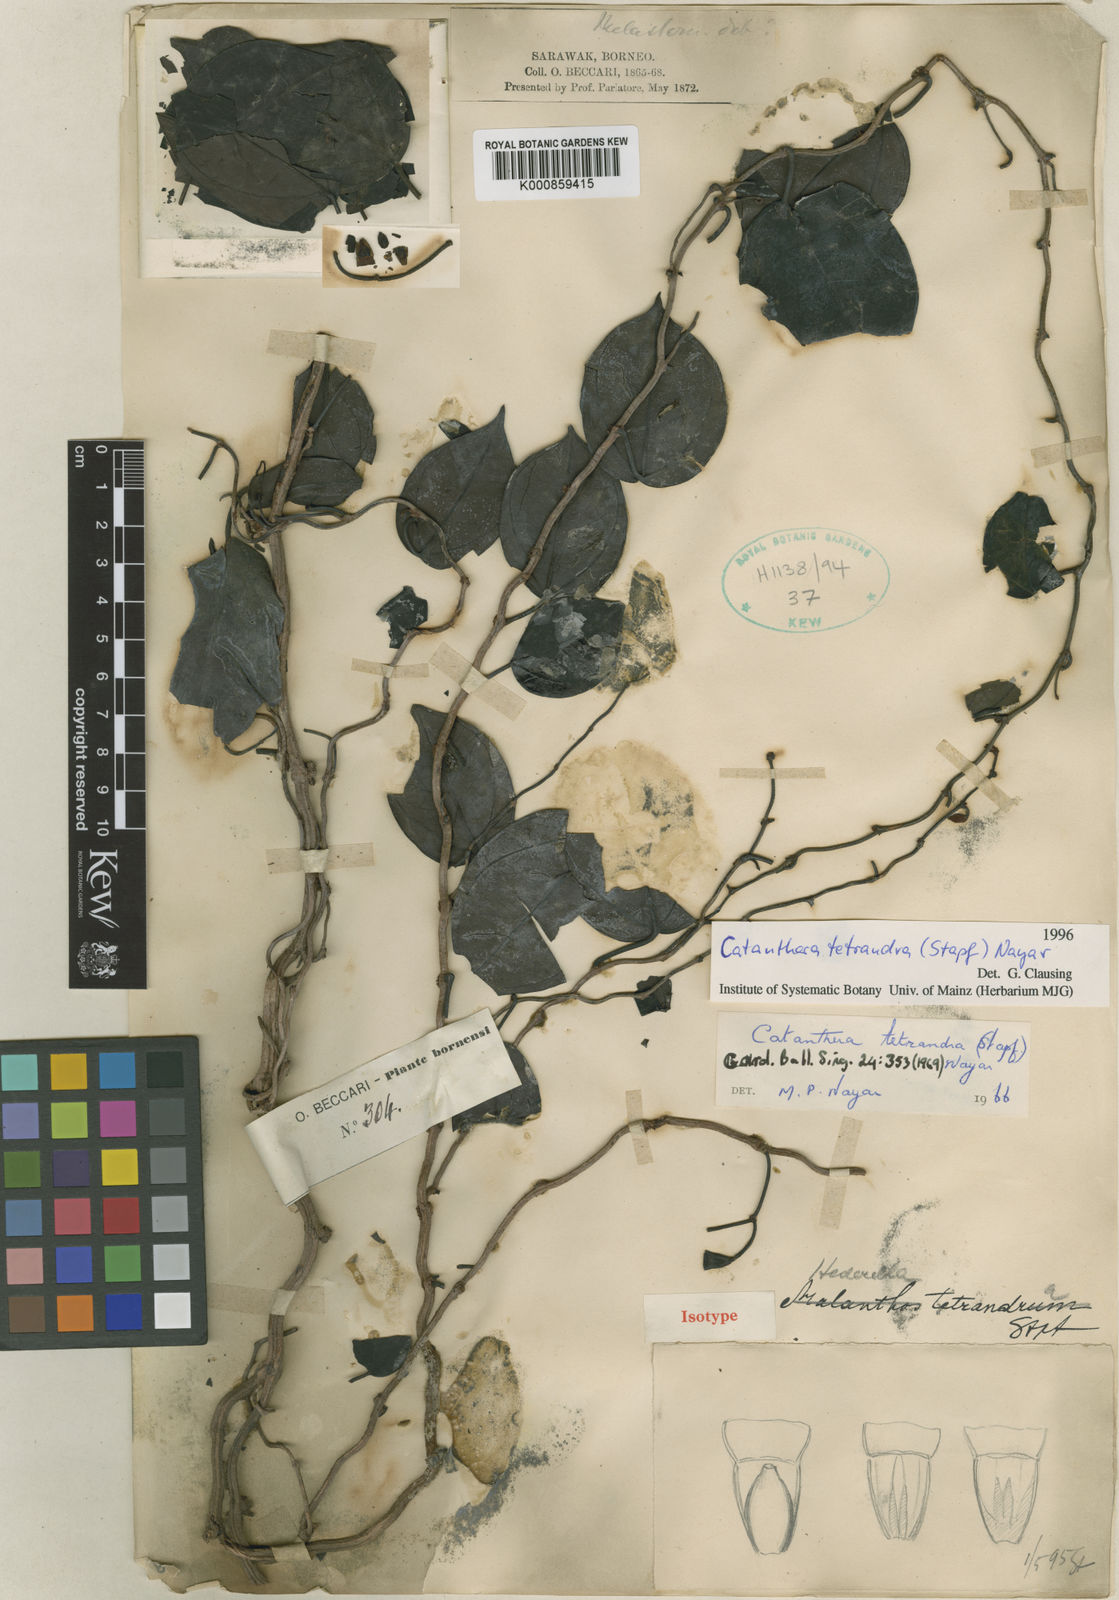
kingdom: Plantae
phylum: Tracheophyta
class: Magnoliopsida
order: Myrtales
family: Melastomataceae
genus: Catanthera
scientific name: Catanthera tetrandra
